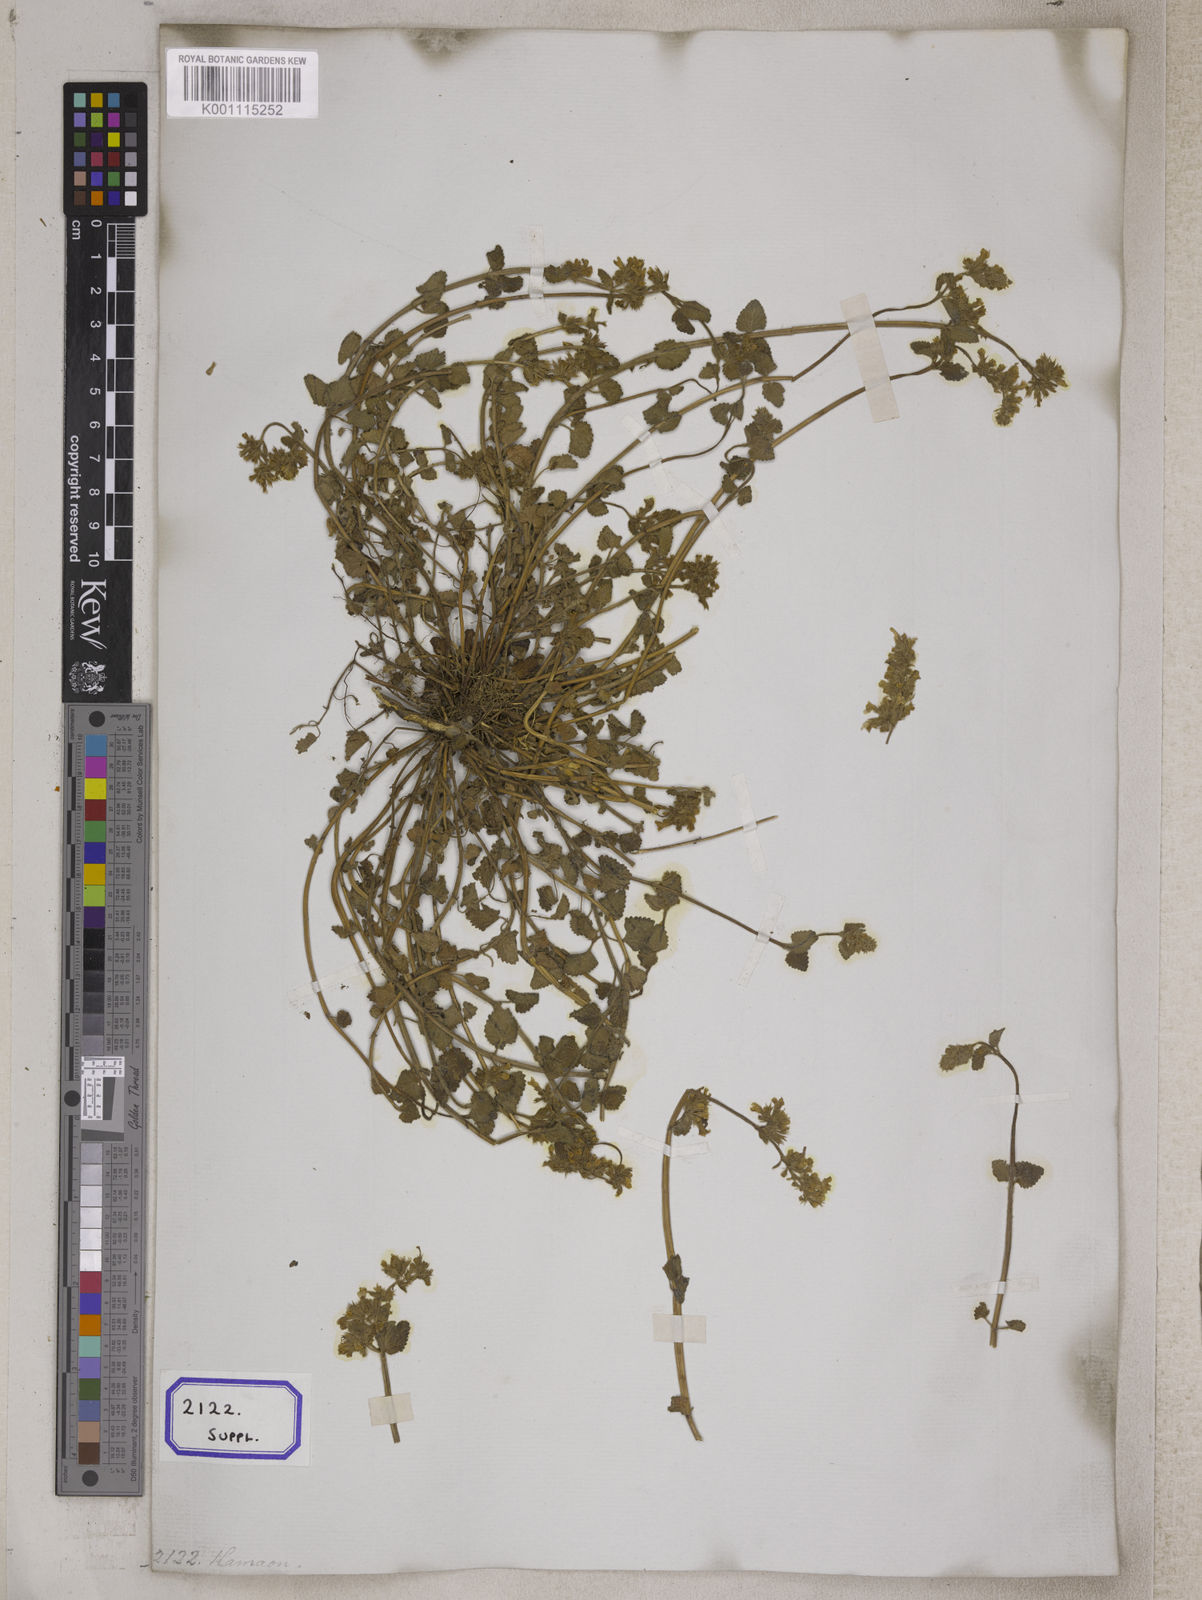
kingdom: Plantae
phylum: Tracheophyta
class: Magnoliopsida
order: Lamiales
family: Lamiaceae
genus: Nepeta
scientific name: Nepeta
